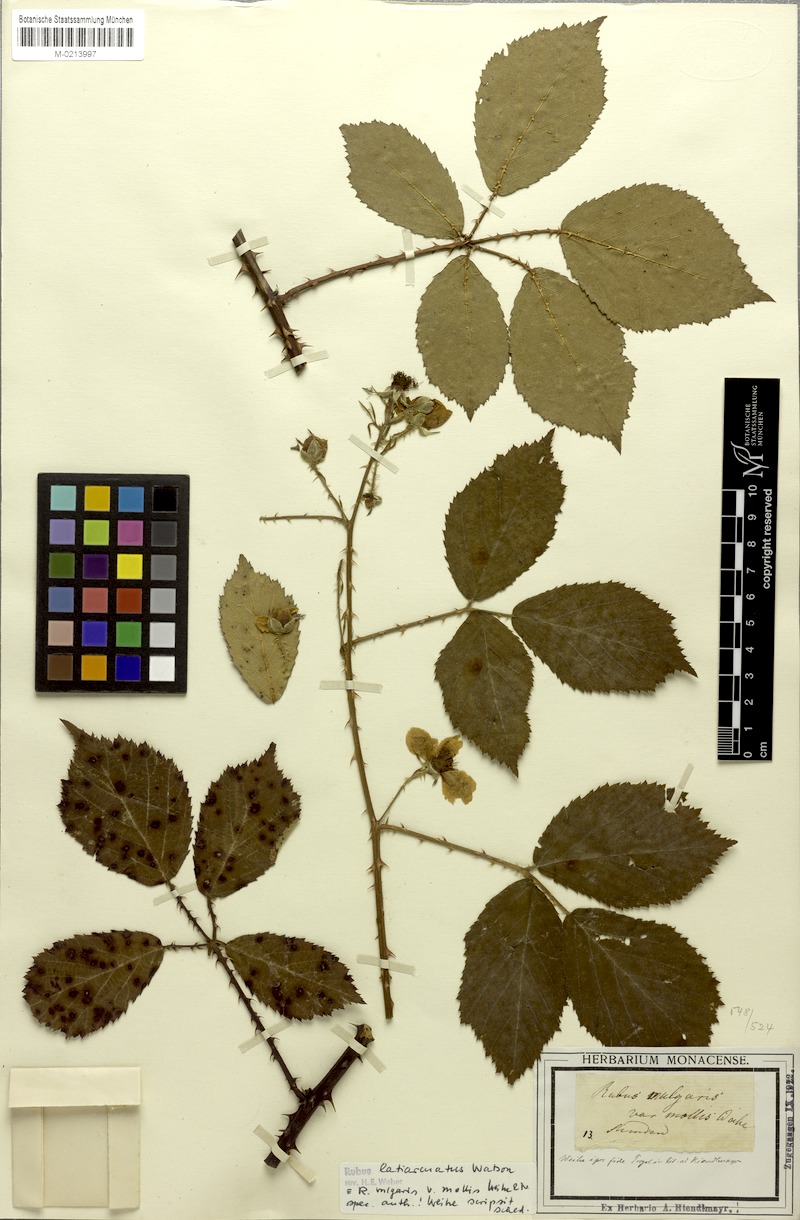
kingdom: Plantae
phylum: Tracheophyta
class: Magnoliopsida
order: Rosales
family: Rosaceae
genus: Rubus
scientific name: Rubus latiarcuatus
